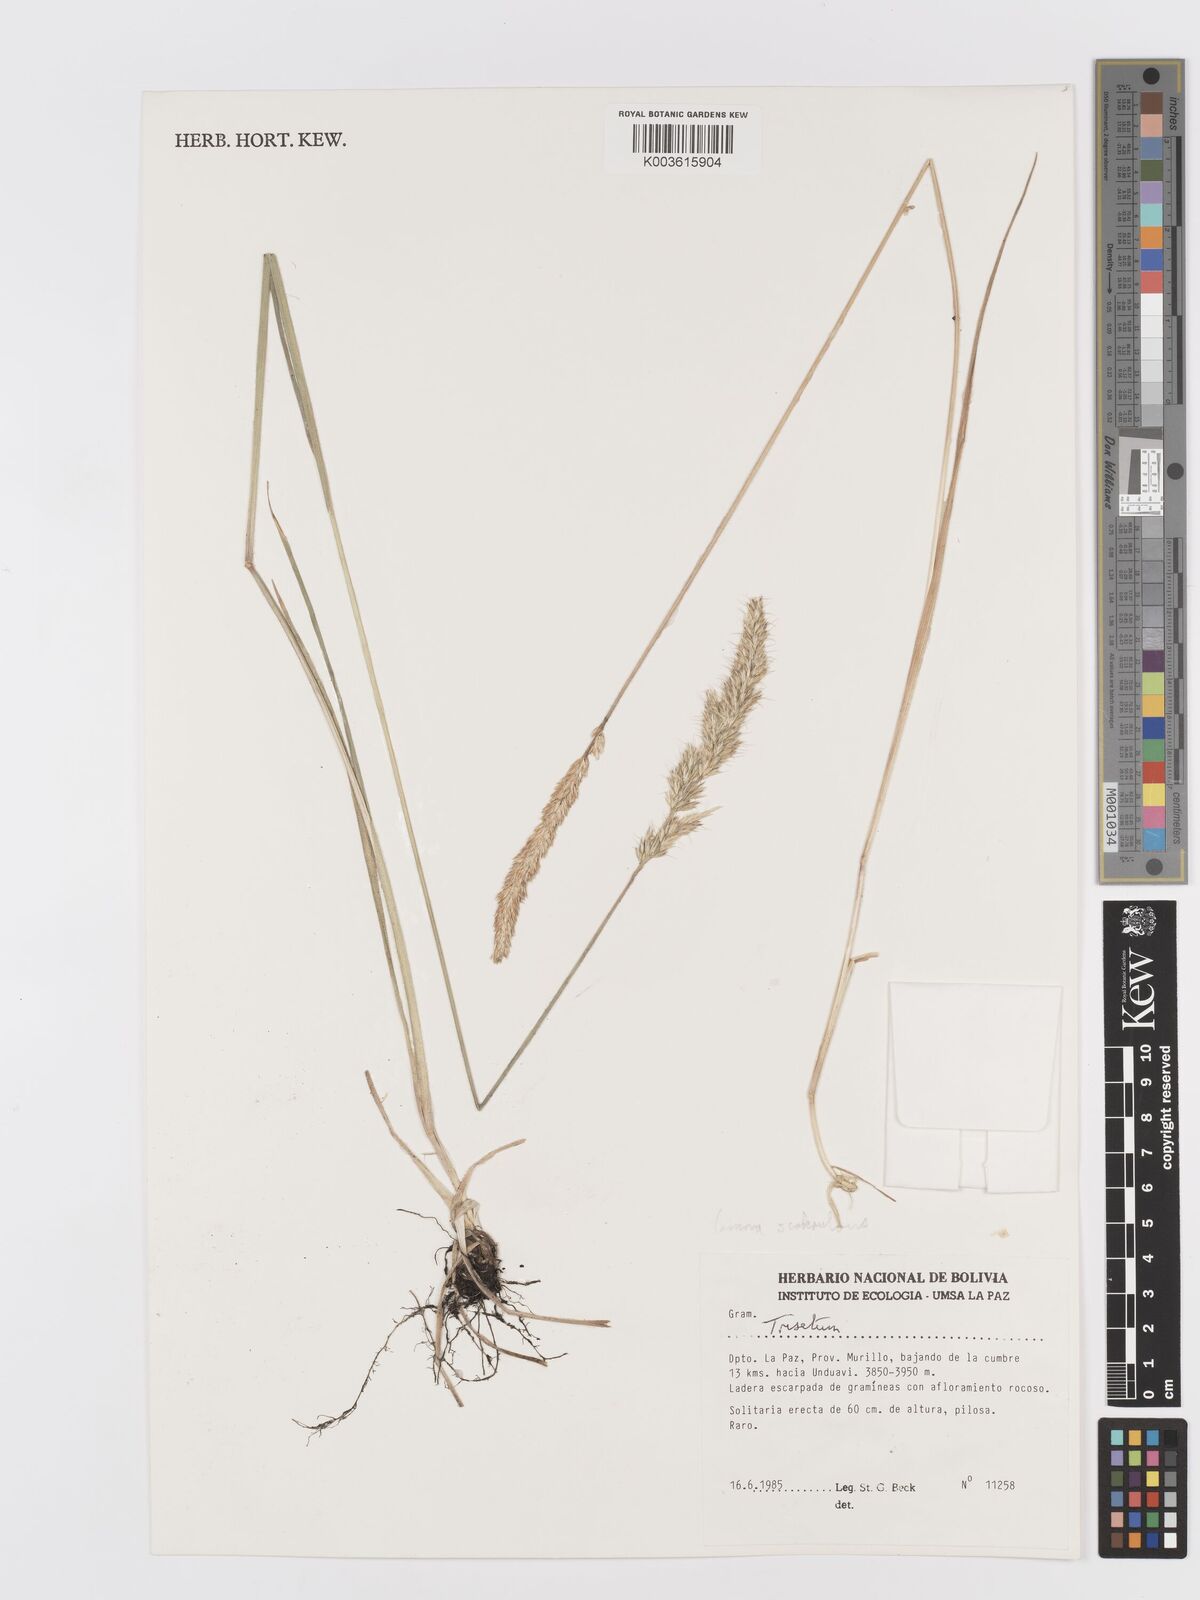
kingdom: Plantae
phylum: Tracheophyta
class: Liliopsida
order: Poales
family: Poaceae
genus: Koeleria
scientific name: Koeleria spicata
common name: Mountain trisetum
